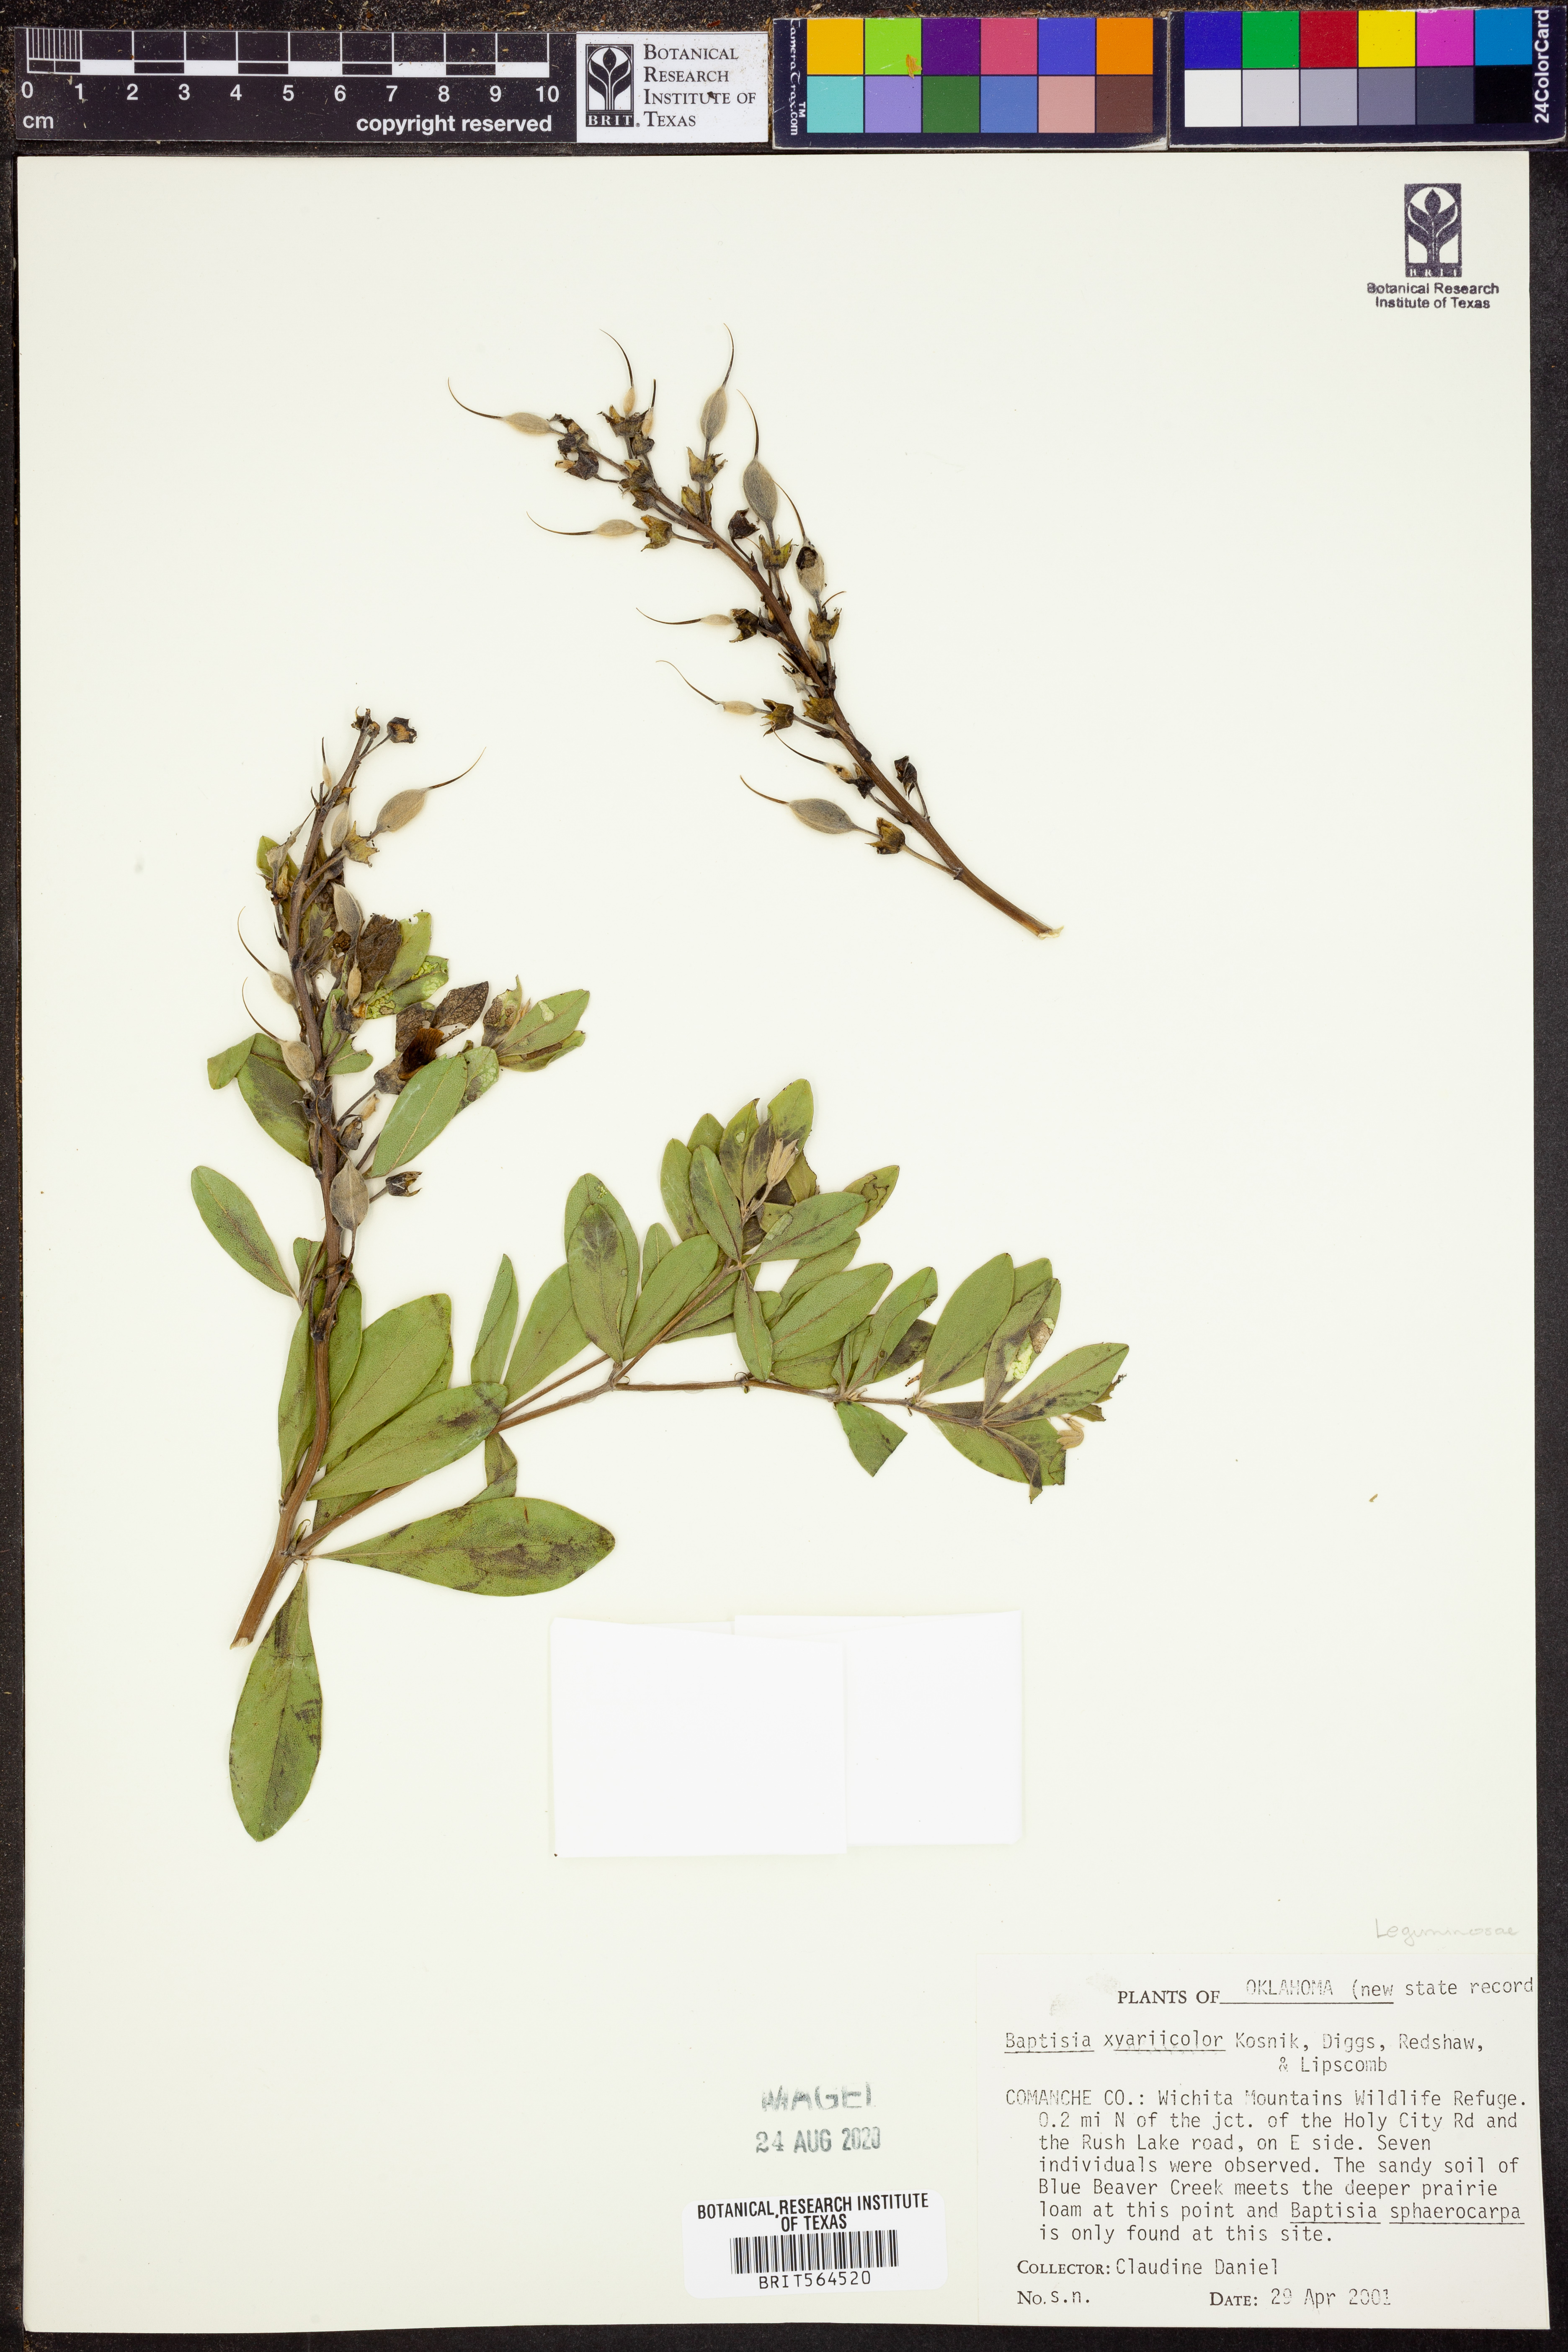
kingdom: Plantae
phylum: Tracheophyta
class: Magnoliopsida
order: Fabales
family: Fabaceae
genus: Baptisia
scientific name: Baptisia
